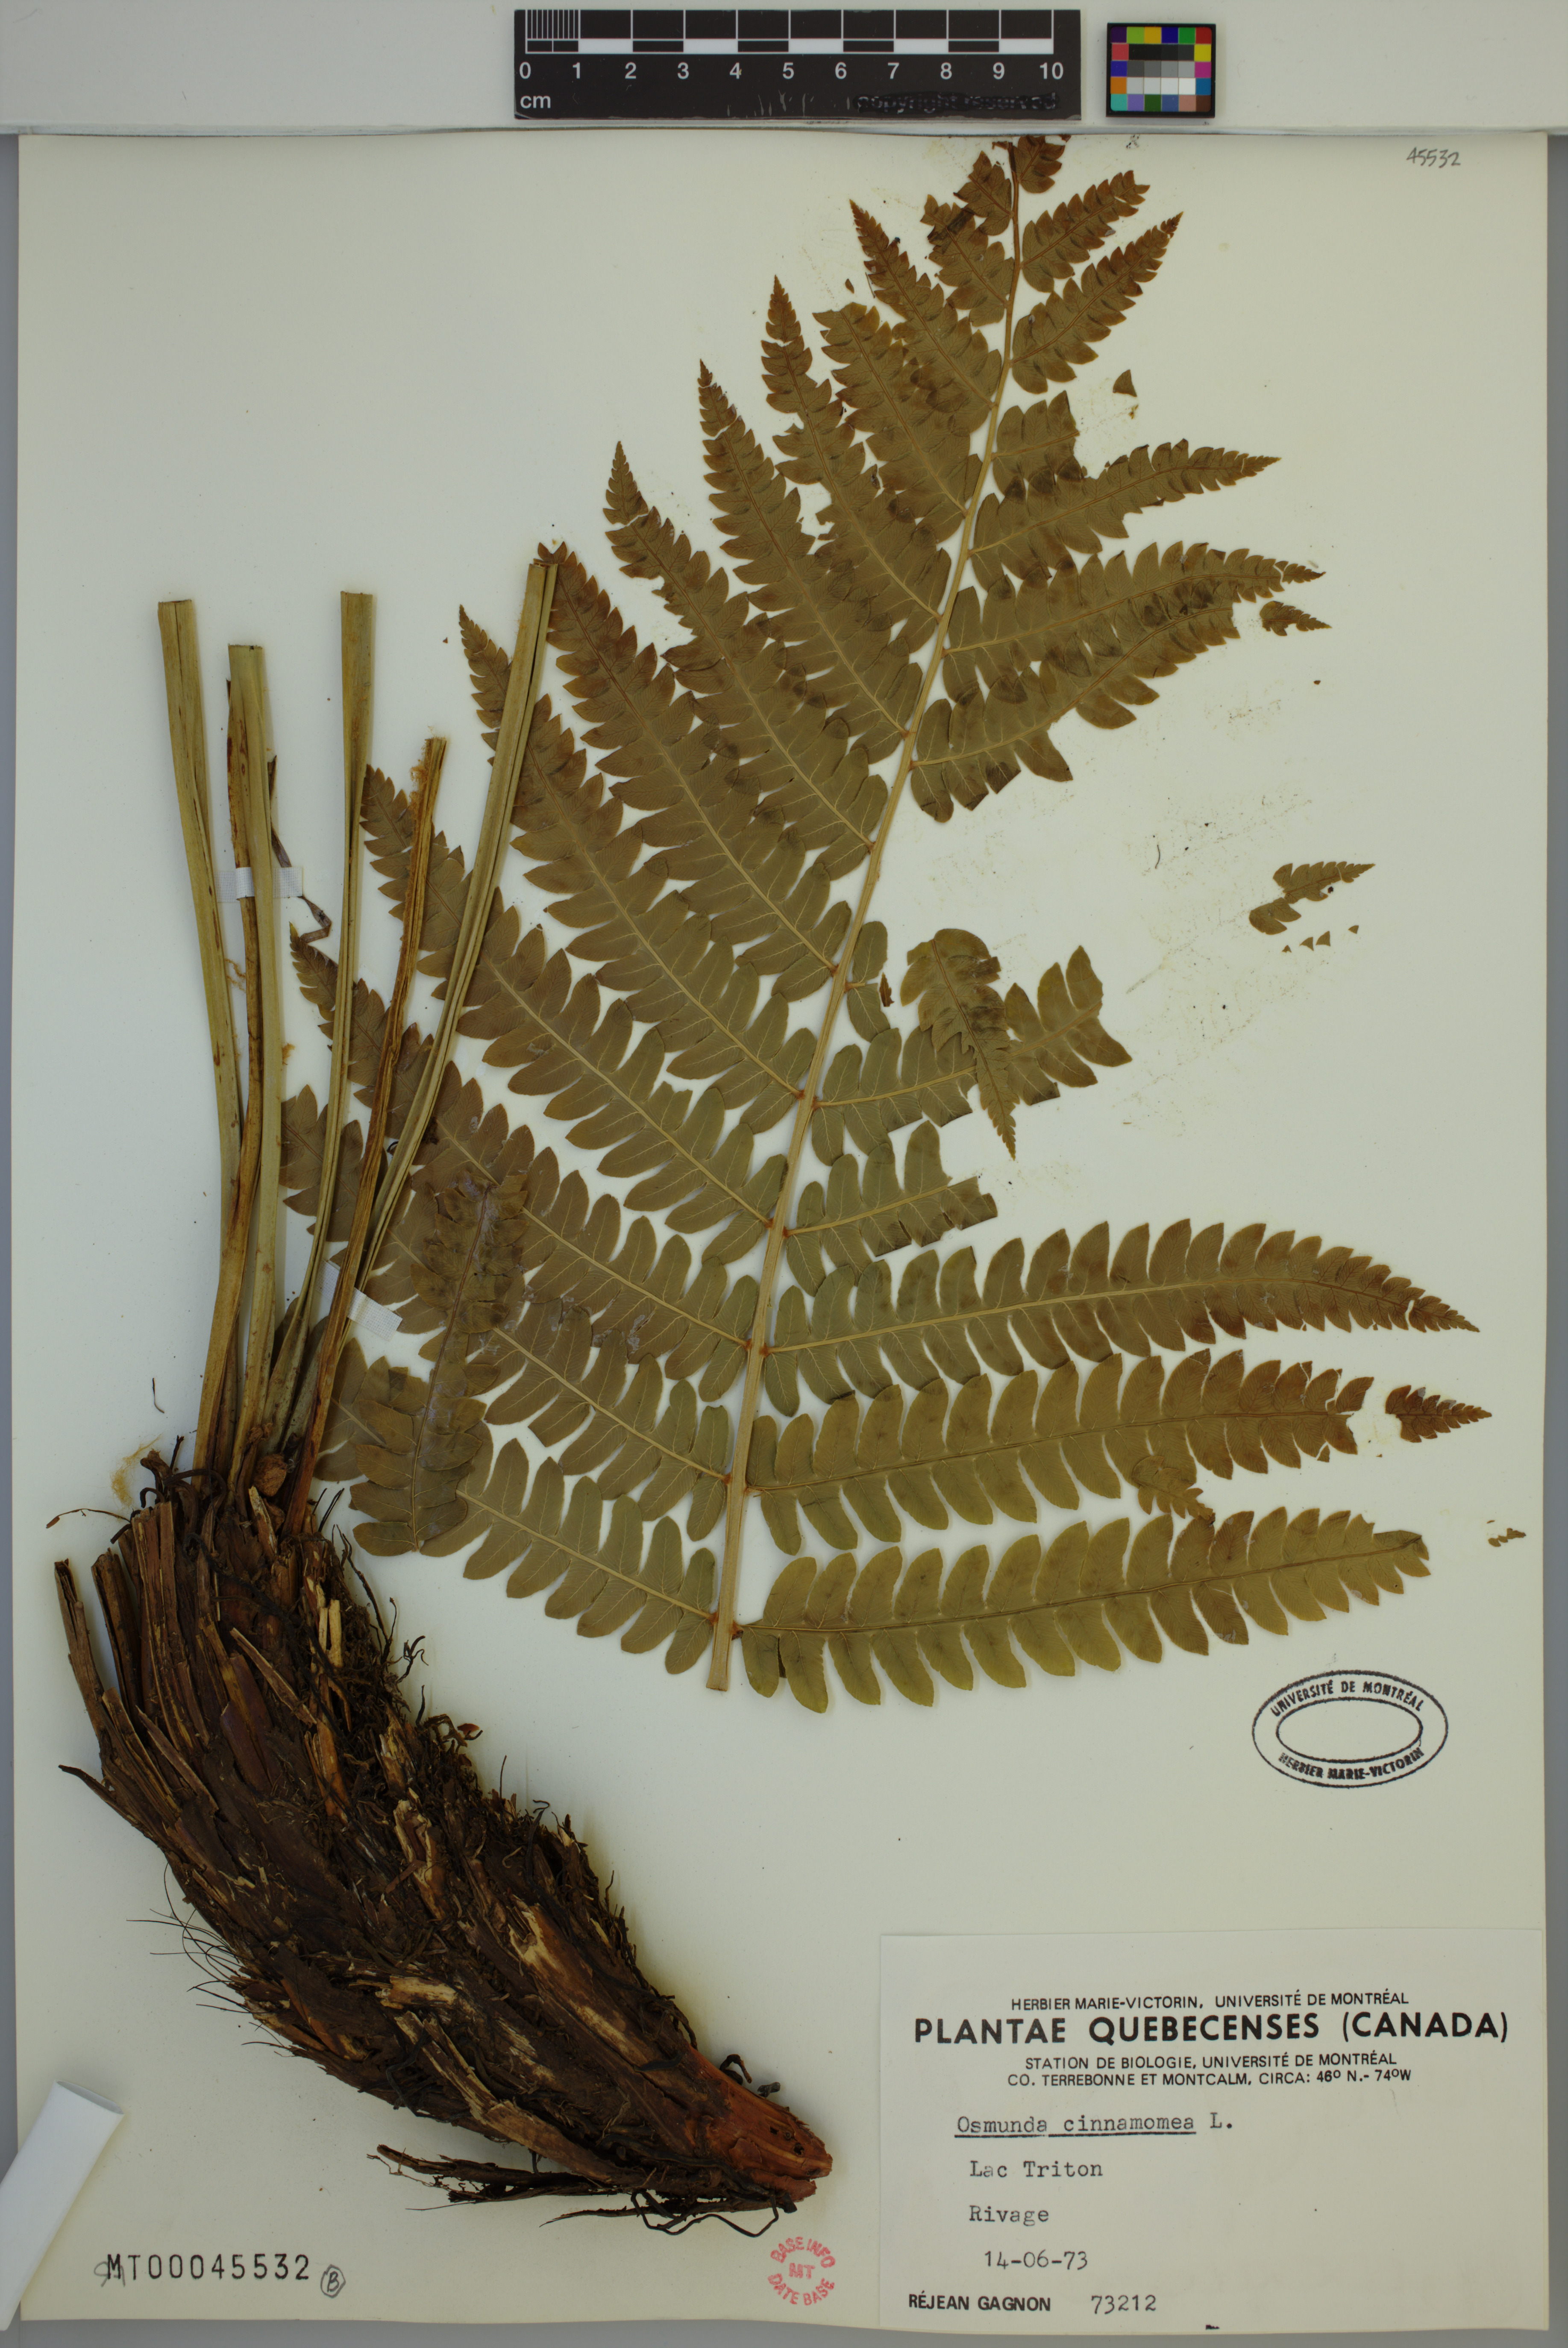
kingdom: Plantae
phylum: Tracheophyta
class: Polypodiopsida
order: Osmundales
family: Osmundaceae
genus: Osmundastrum
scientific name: Osmundastrum cinnamomeum
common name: Cinnamon fern
